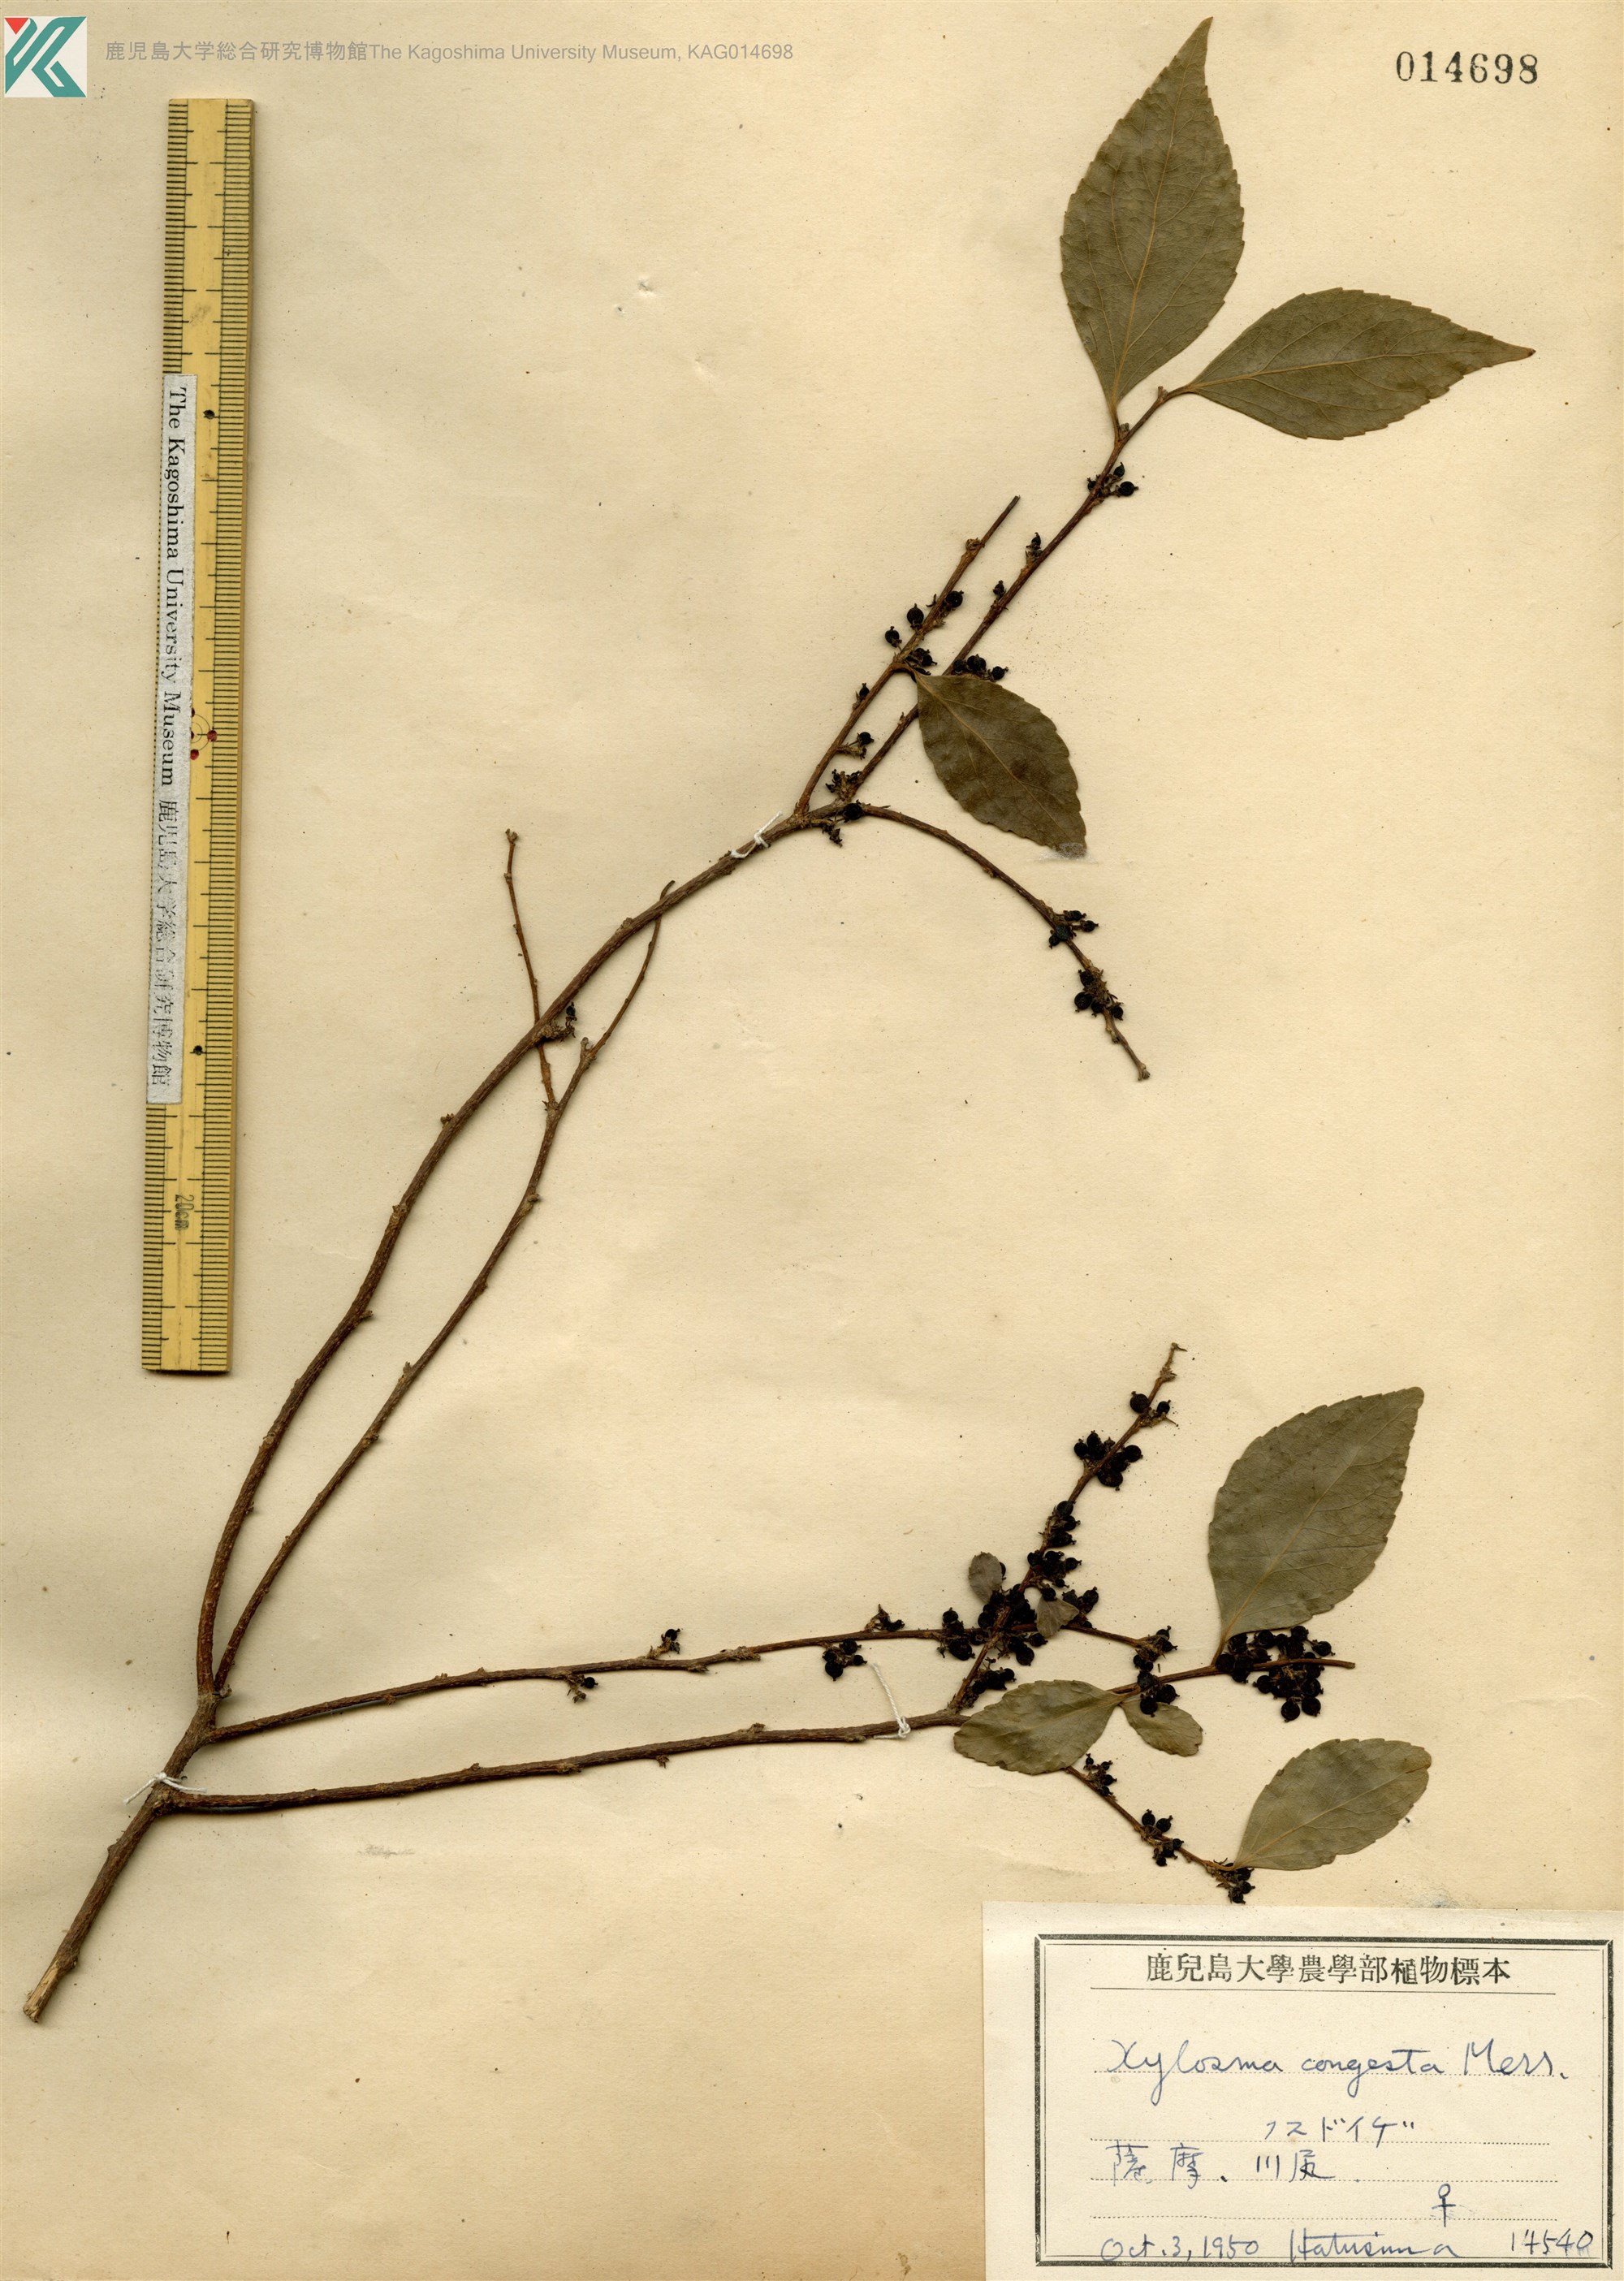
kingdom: Plantae
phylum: Tracheophyta
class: Magnoliopsida
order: Malpighiales
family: Salicaceae
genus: Xylosma
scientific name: Xylosma racemosum
